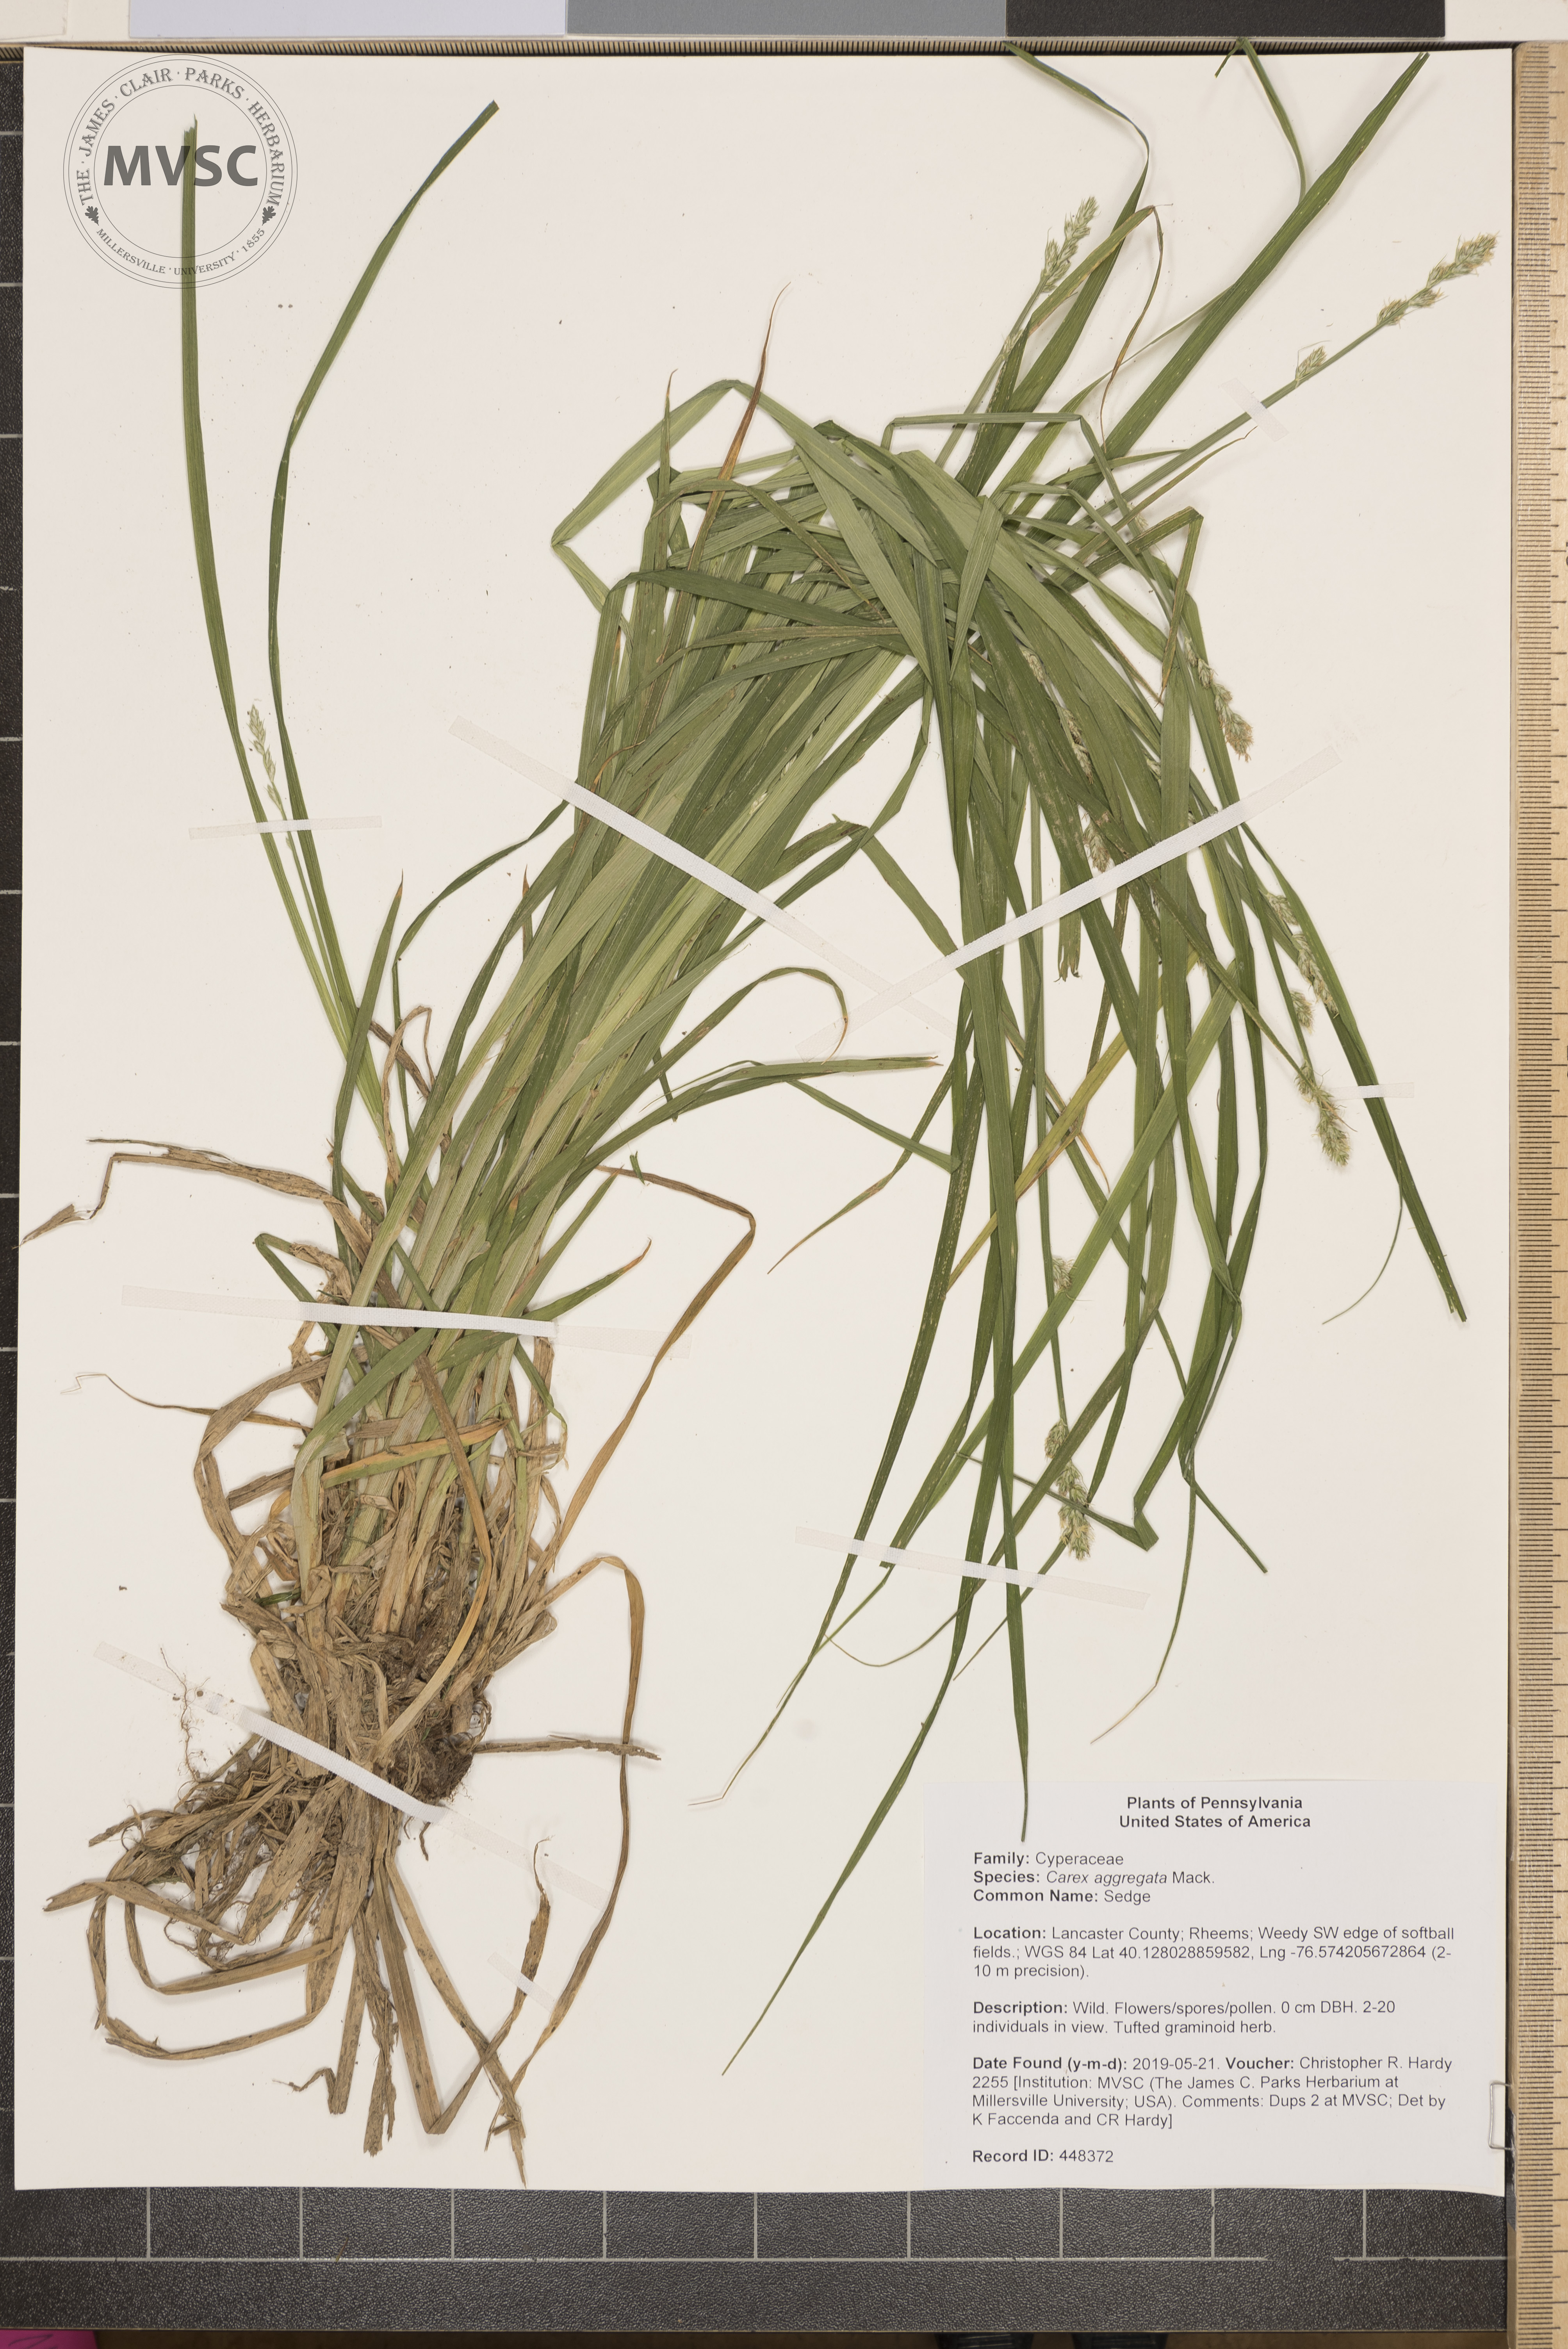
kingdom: Plantae
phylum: Tracheophyta
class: Liliopsida
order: Poales
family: Cyperaceae
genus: Carex
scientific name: Carex aggregata
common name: Sedge
